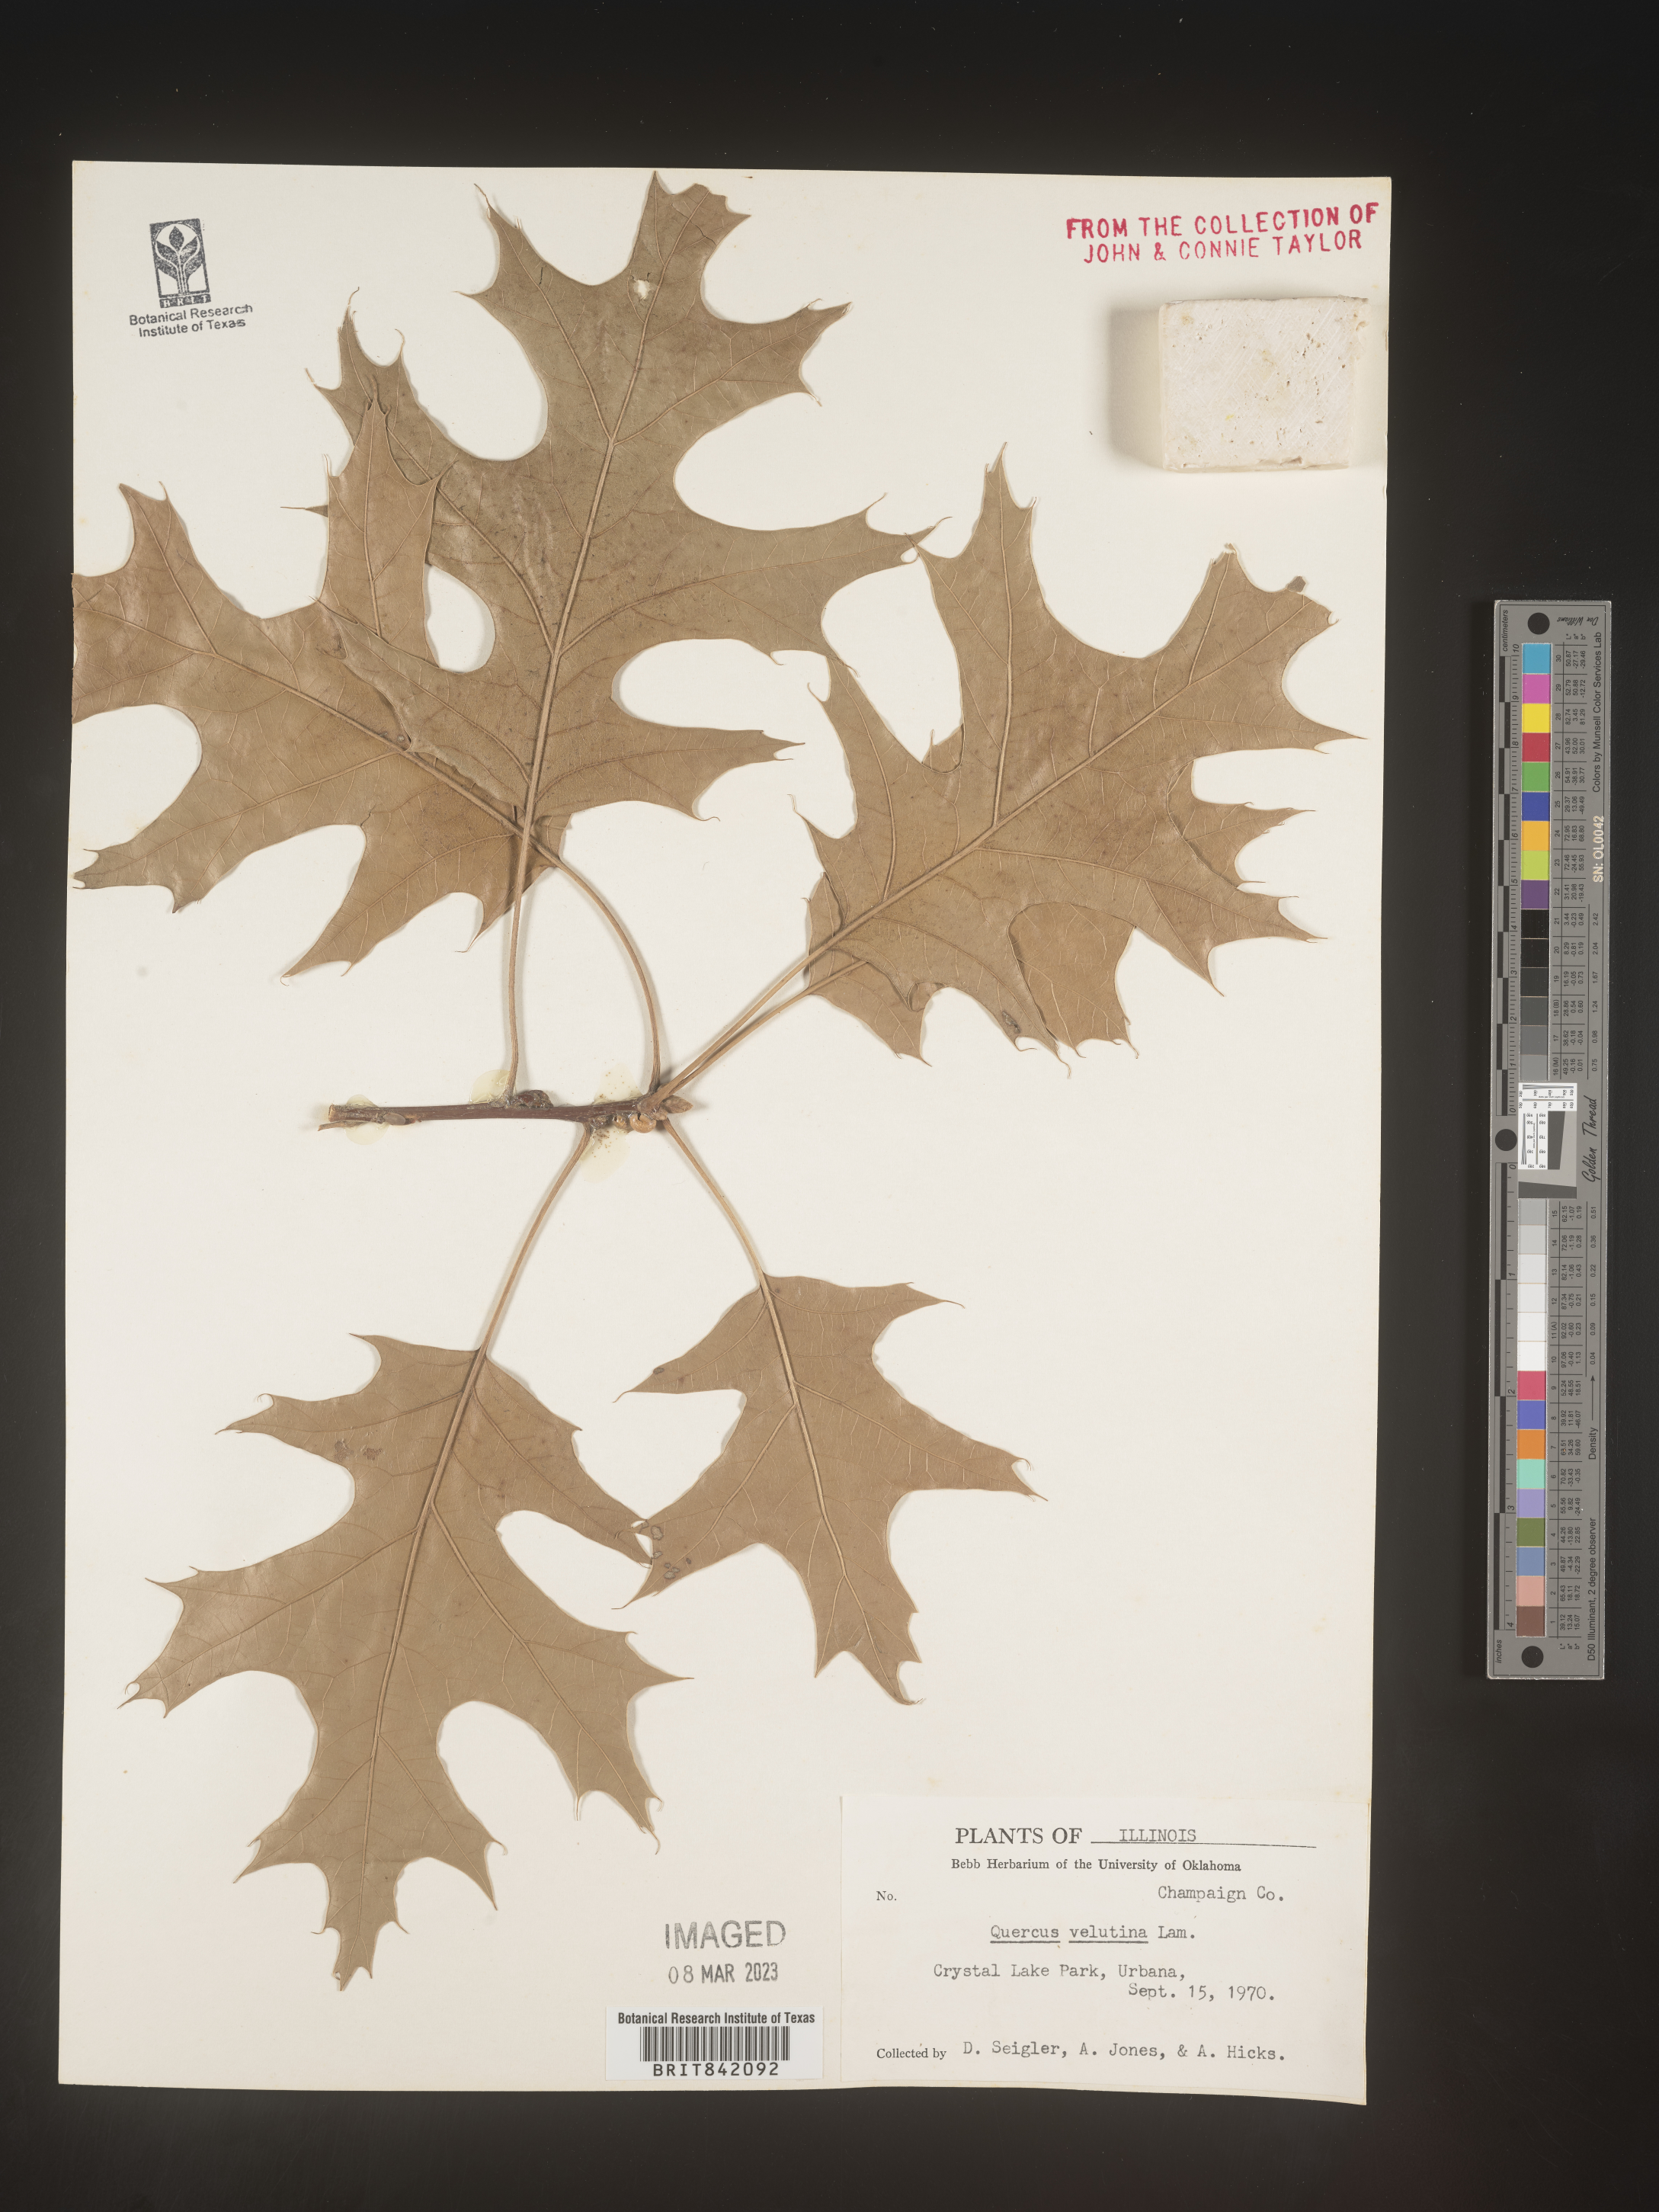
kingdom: Plantae
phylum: Tracheophyta
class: Magnoliopsida
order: Fagales
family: Fagaceae
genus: Quercus
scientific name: Quercus velutina
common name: Black oak
